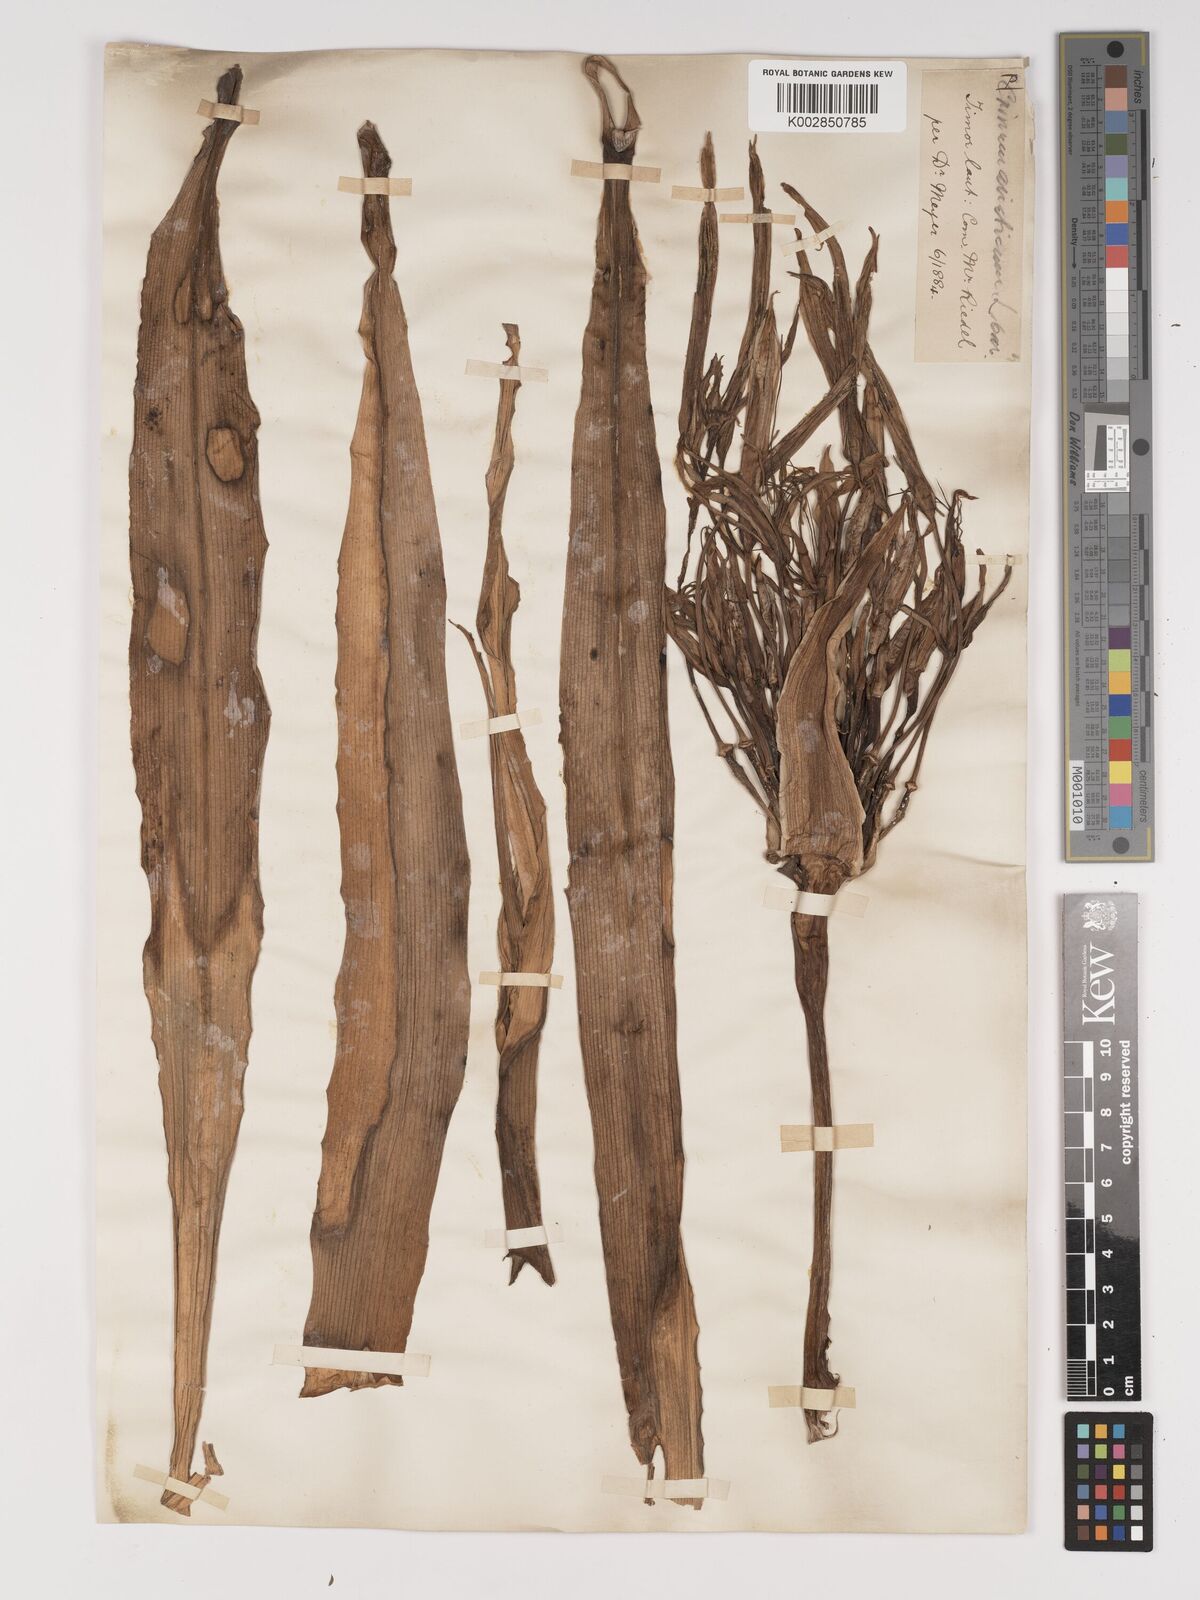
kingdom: Plantae
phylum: Tracheophyta
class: Liliopsida
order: Asparagales
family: Amaryllidaceae
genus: Crinum
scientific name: Crinum asiaticum
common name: Poisonbulb
